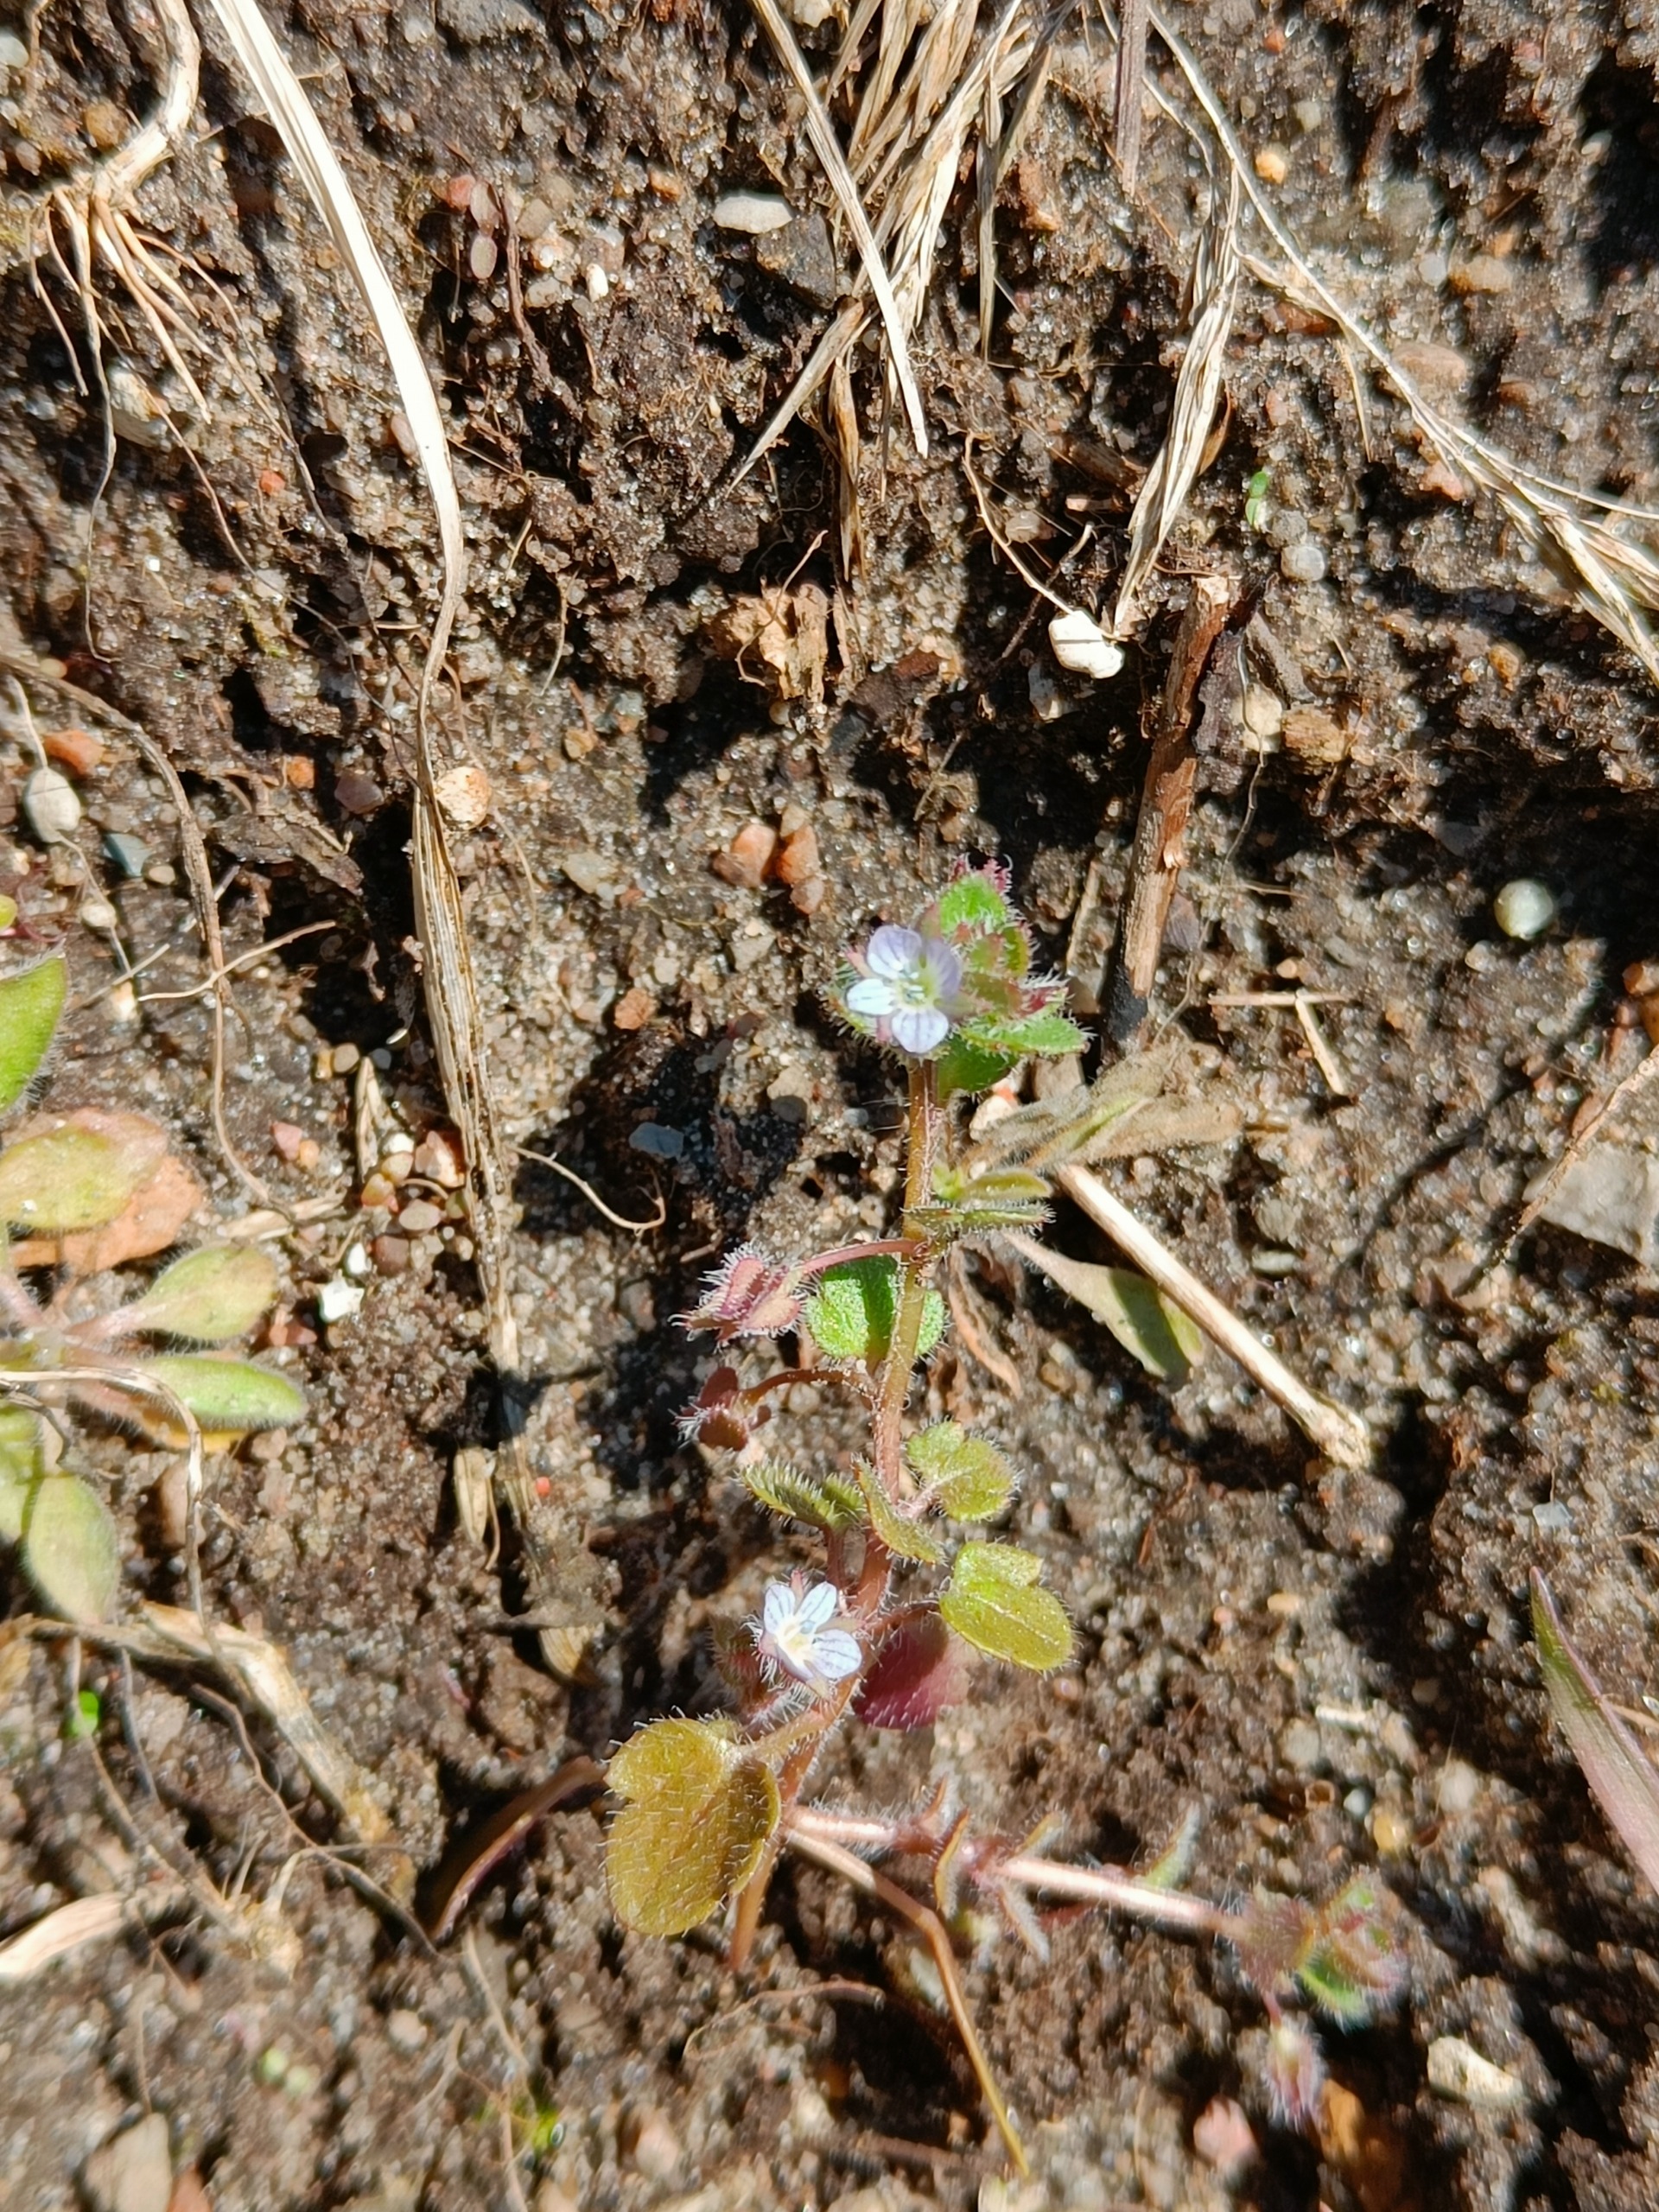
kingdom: Plantae
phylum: Tracheophyta
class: Magnoliopsida
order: Lamiales
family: Plantaginaceae
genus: Veronica
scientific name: Veronica sublobata
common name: Krat-ærenpris
